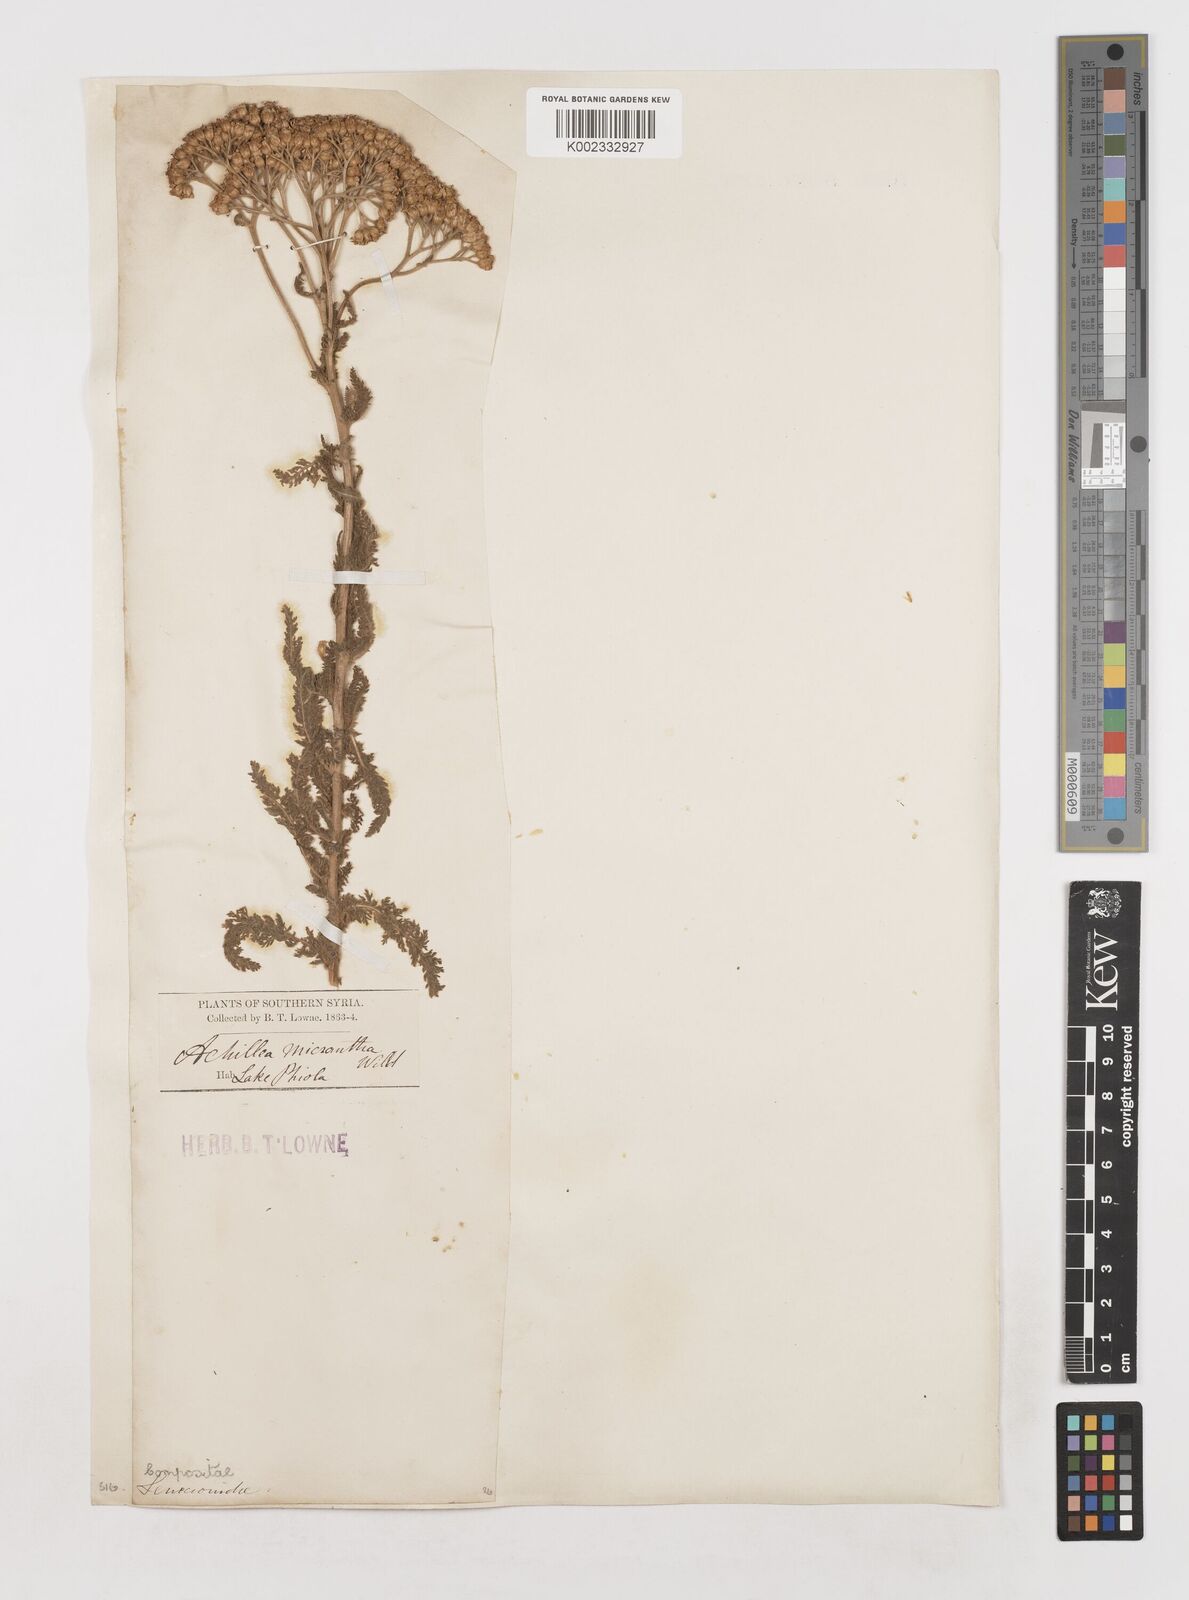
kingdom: Plantae
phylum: Tracheophyta
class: Magnoliopsida
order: Asterales
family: Asteraceae
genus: Achillea
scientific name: Achillea arabica
